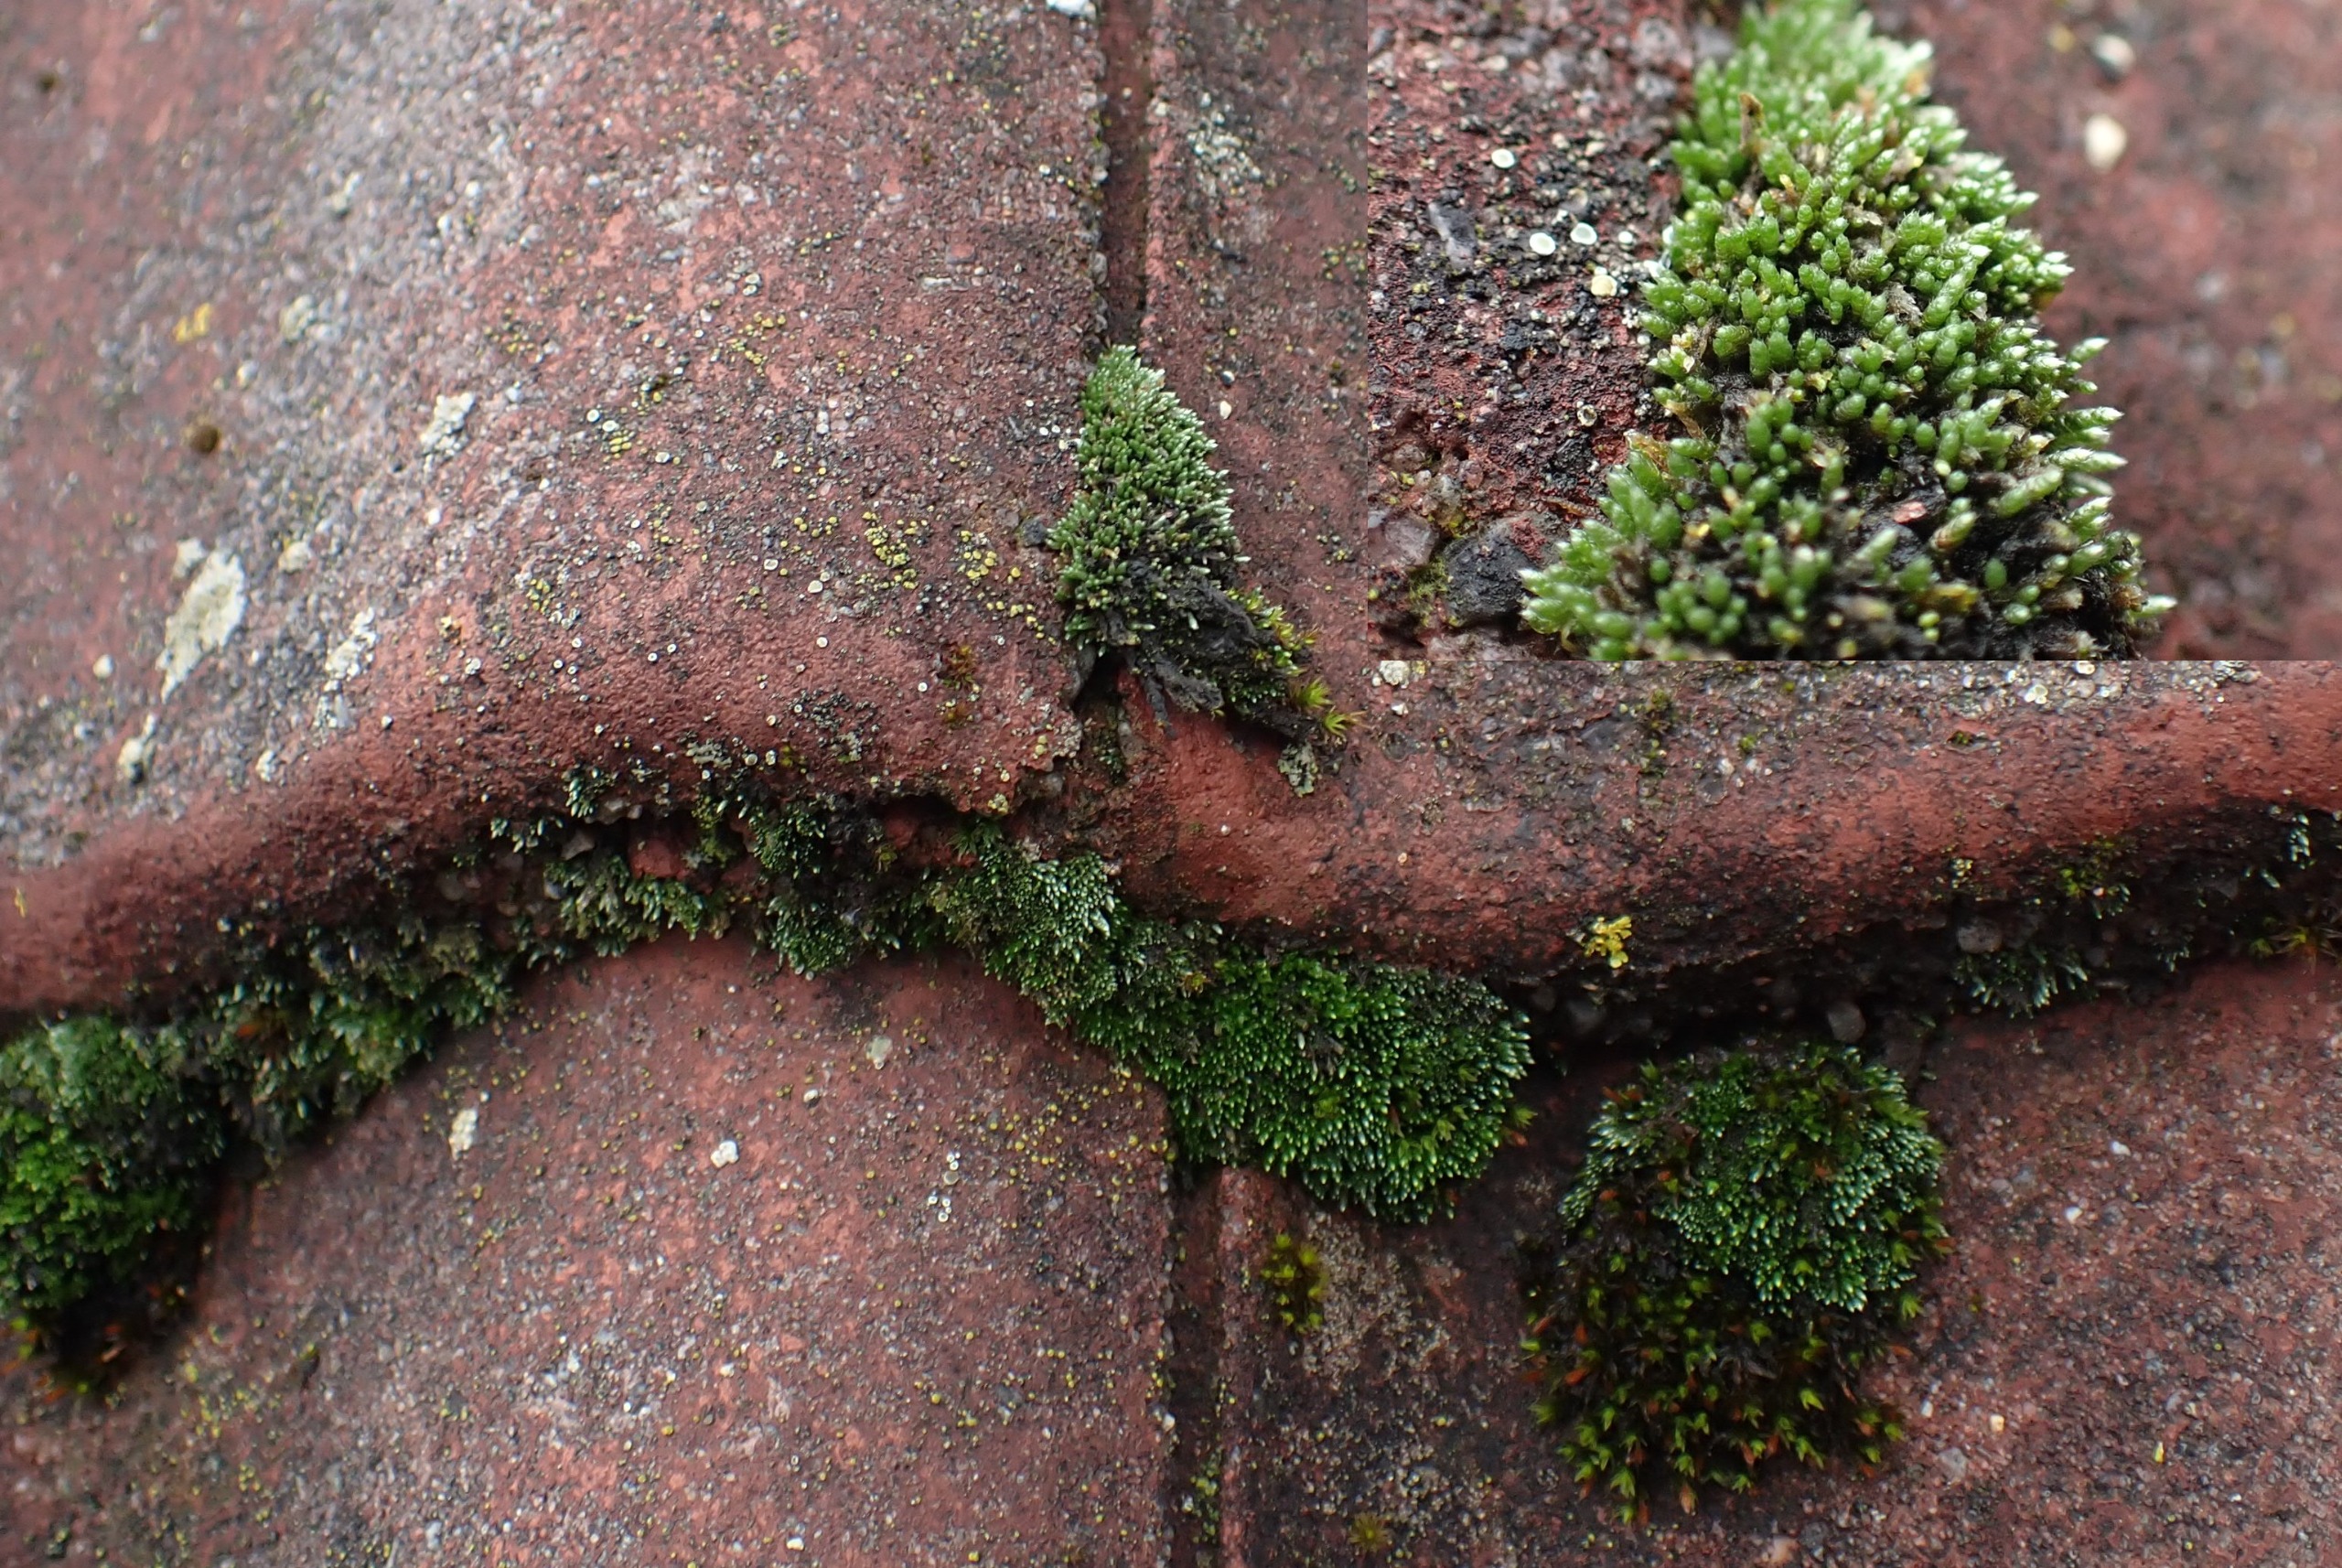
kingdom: Plantae
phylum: Bryophyta
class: Bryopsida
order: Bryales
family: Bryaceae
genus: Bryum
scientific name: Bryum argenteum
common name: Sølv-bryum
